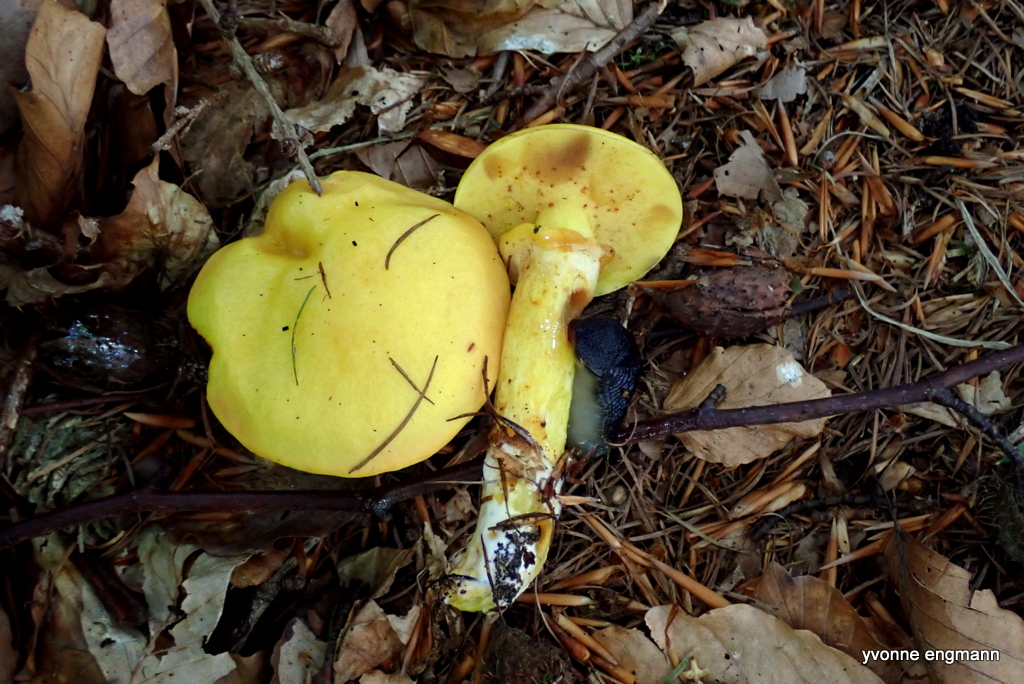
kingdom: Fungi
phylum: Basidiomycota
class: Agaricomycetes
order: Boletales
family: Suillaceae
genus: Suillus
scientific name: Suillus grevillei
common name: lærke-slimrørhat
